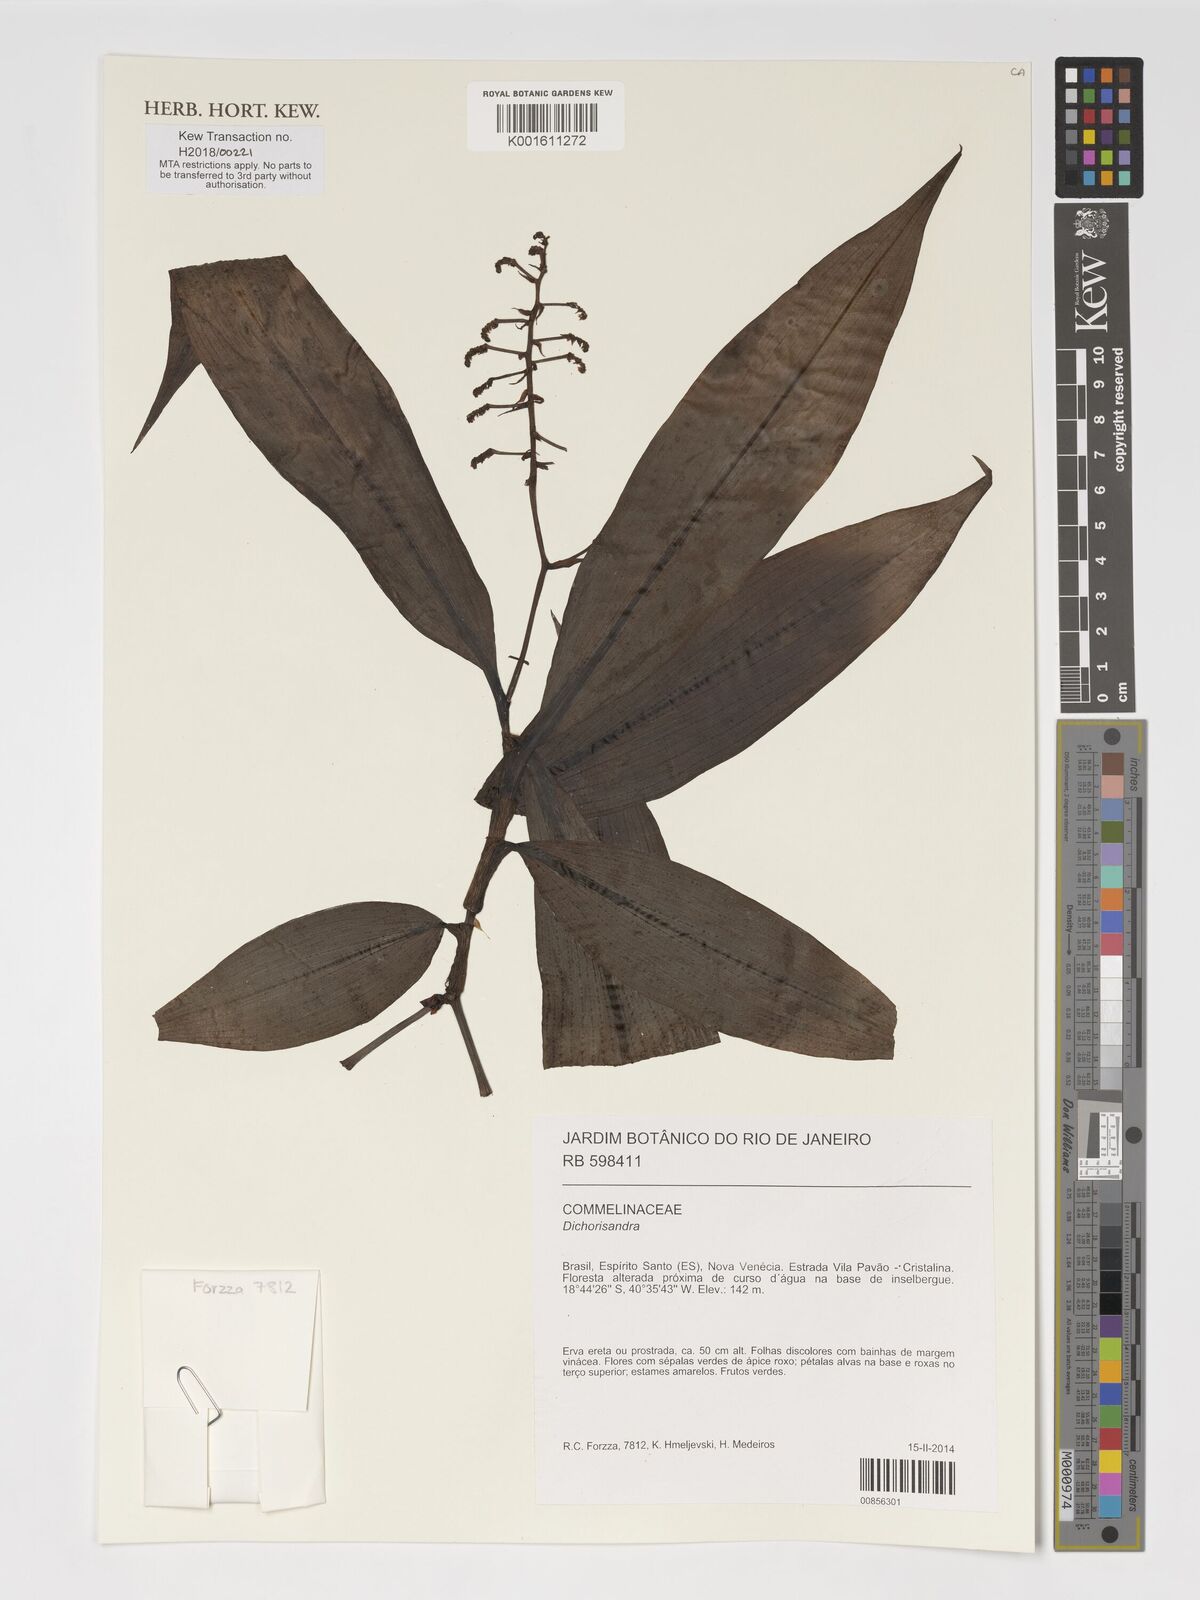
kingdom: Plantae
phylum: Tracheophyta
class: Liliopsida
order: Commelinales
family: Commelinaceae
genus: Dichorisandra
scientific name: Dichorisandra
